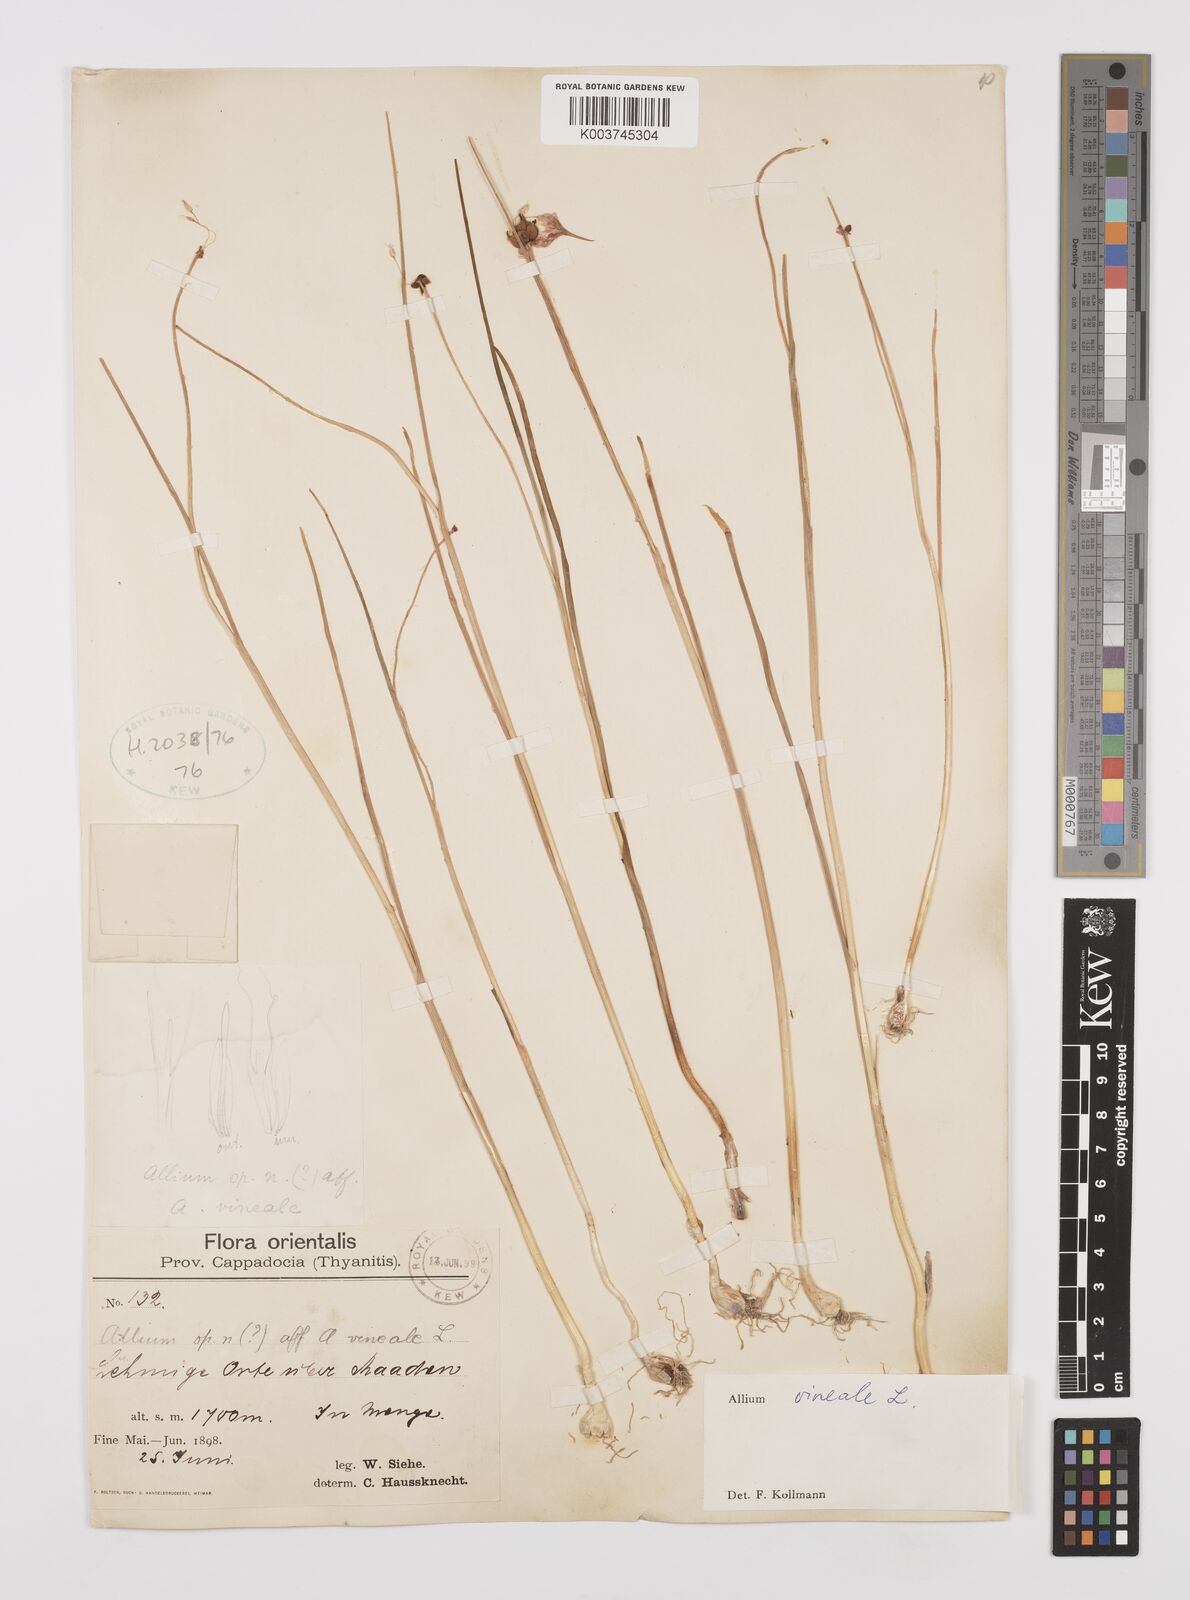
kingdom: Plantae
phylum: Tracheophyta
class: Liliopsida
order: Asparagales
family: Amaryllidaceae
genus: Allium
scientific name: Allium vineale
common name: Crow garlic
